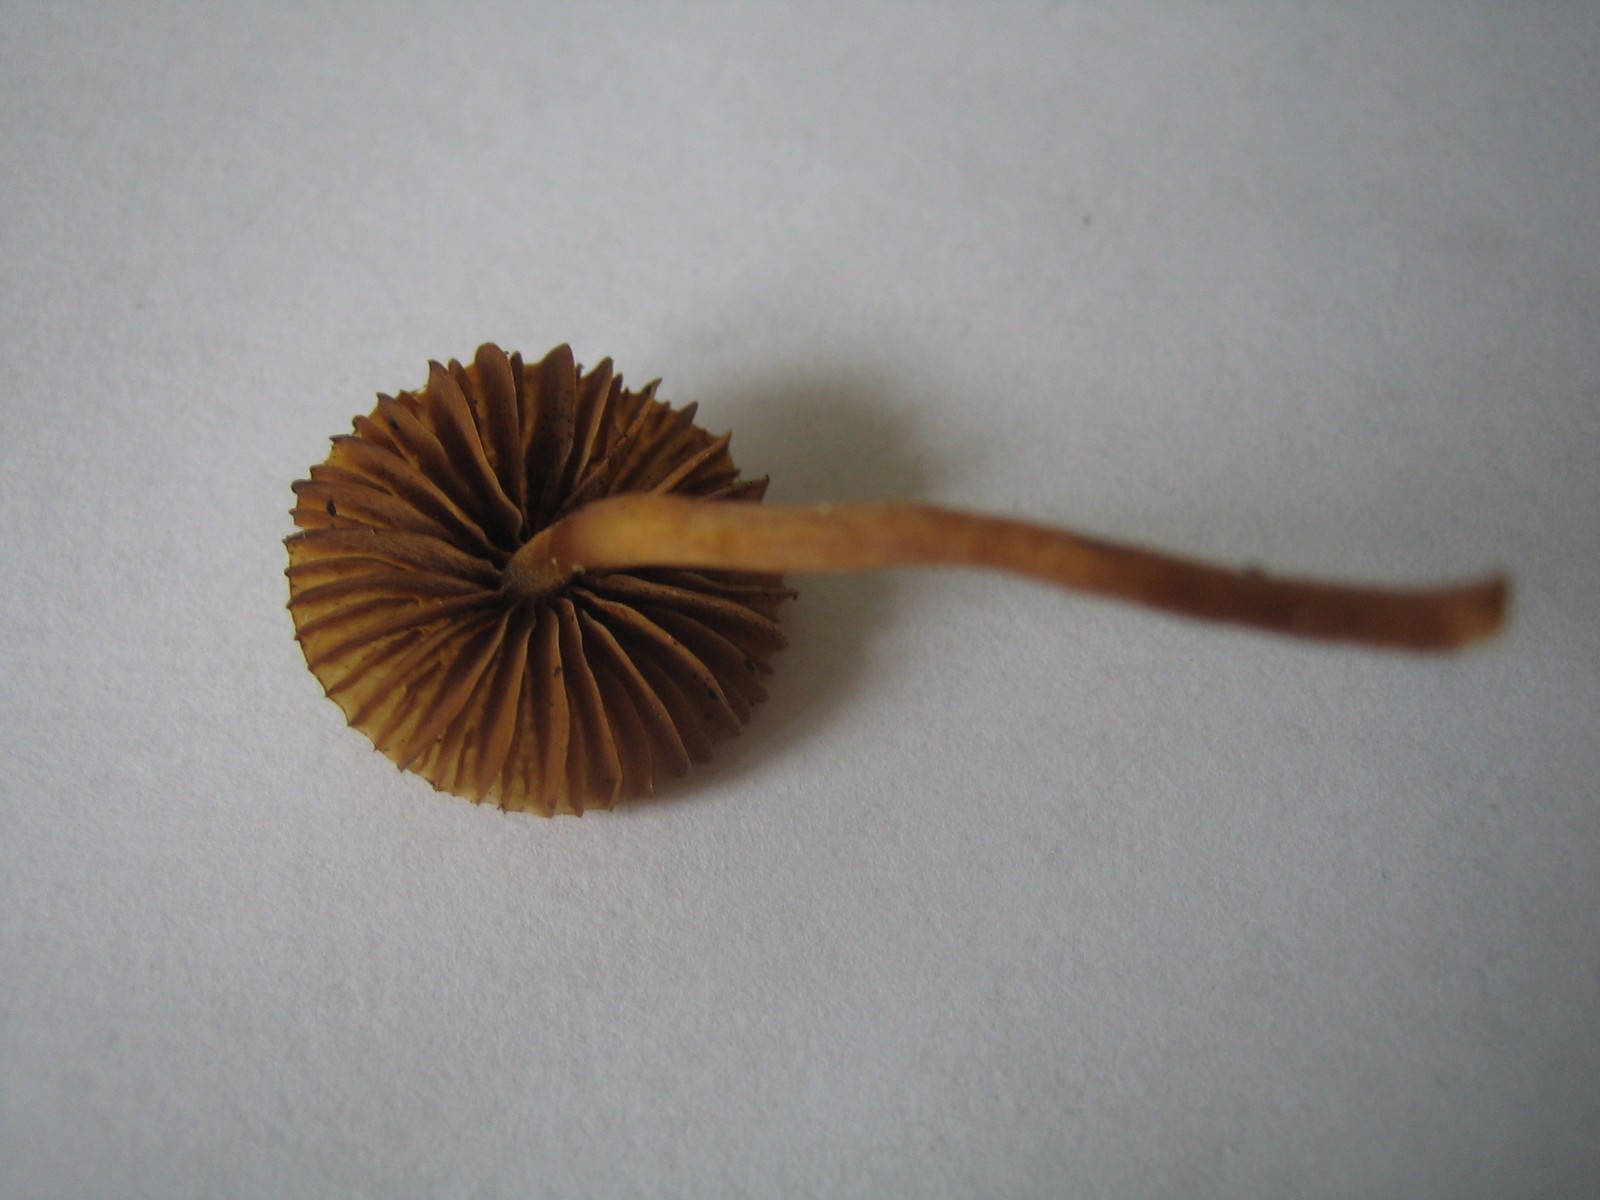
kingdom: Fungi
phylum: Basidiomycota
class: Agaricomycetes
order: Agaricales
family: Hymenogastraceae
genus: Galerina
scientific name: Galerina
